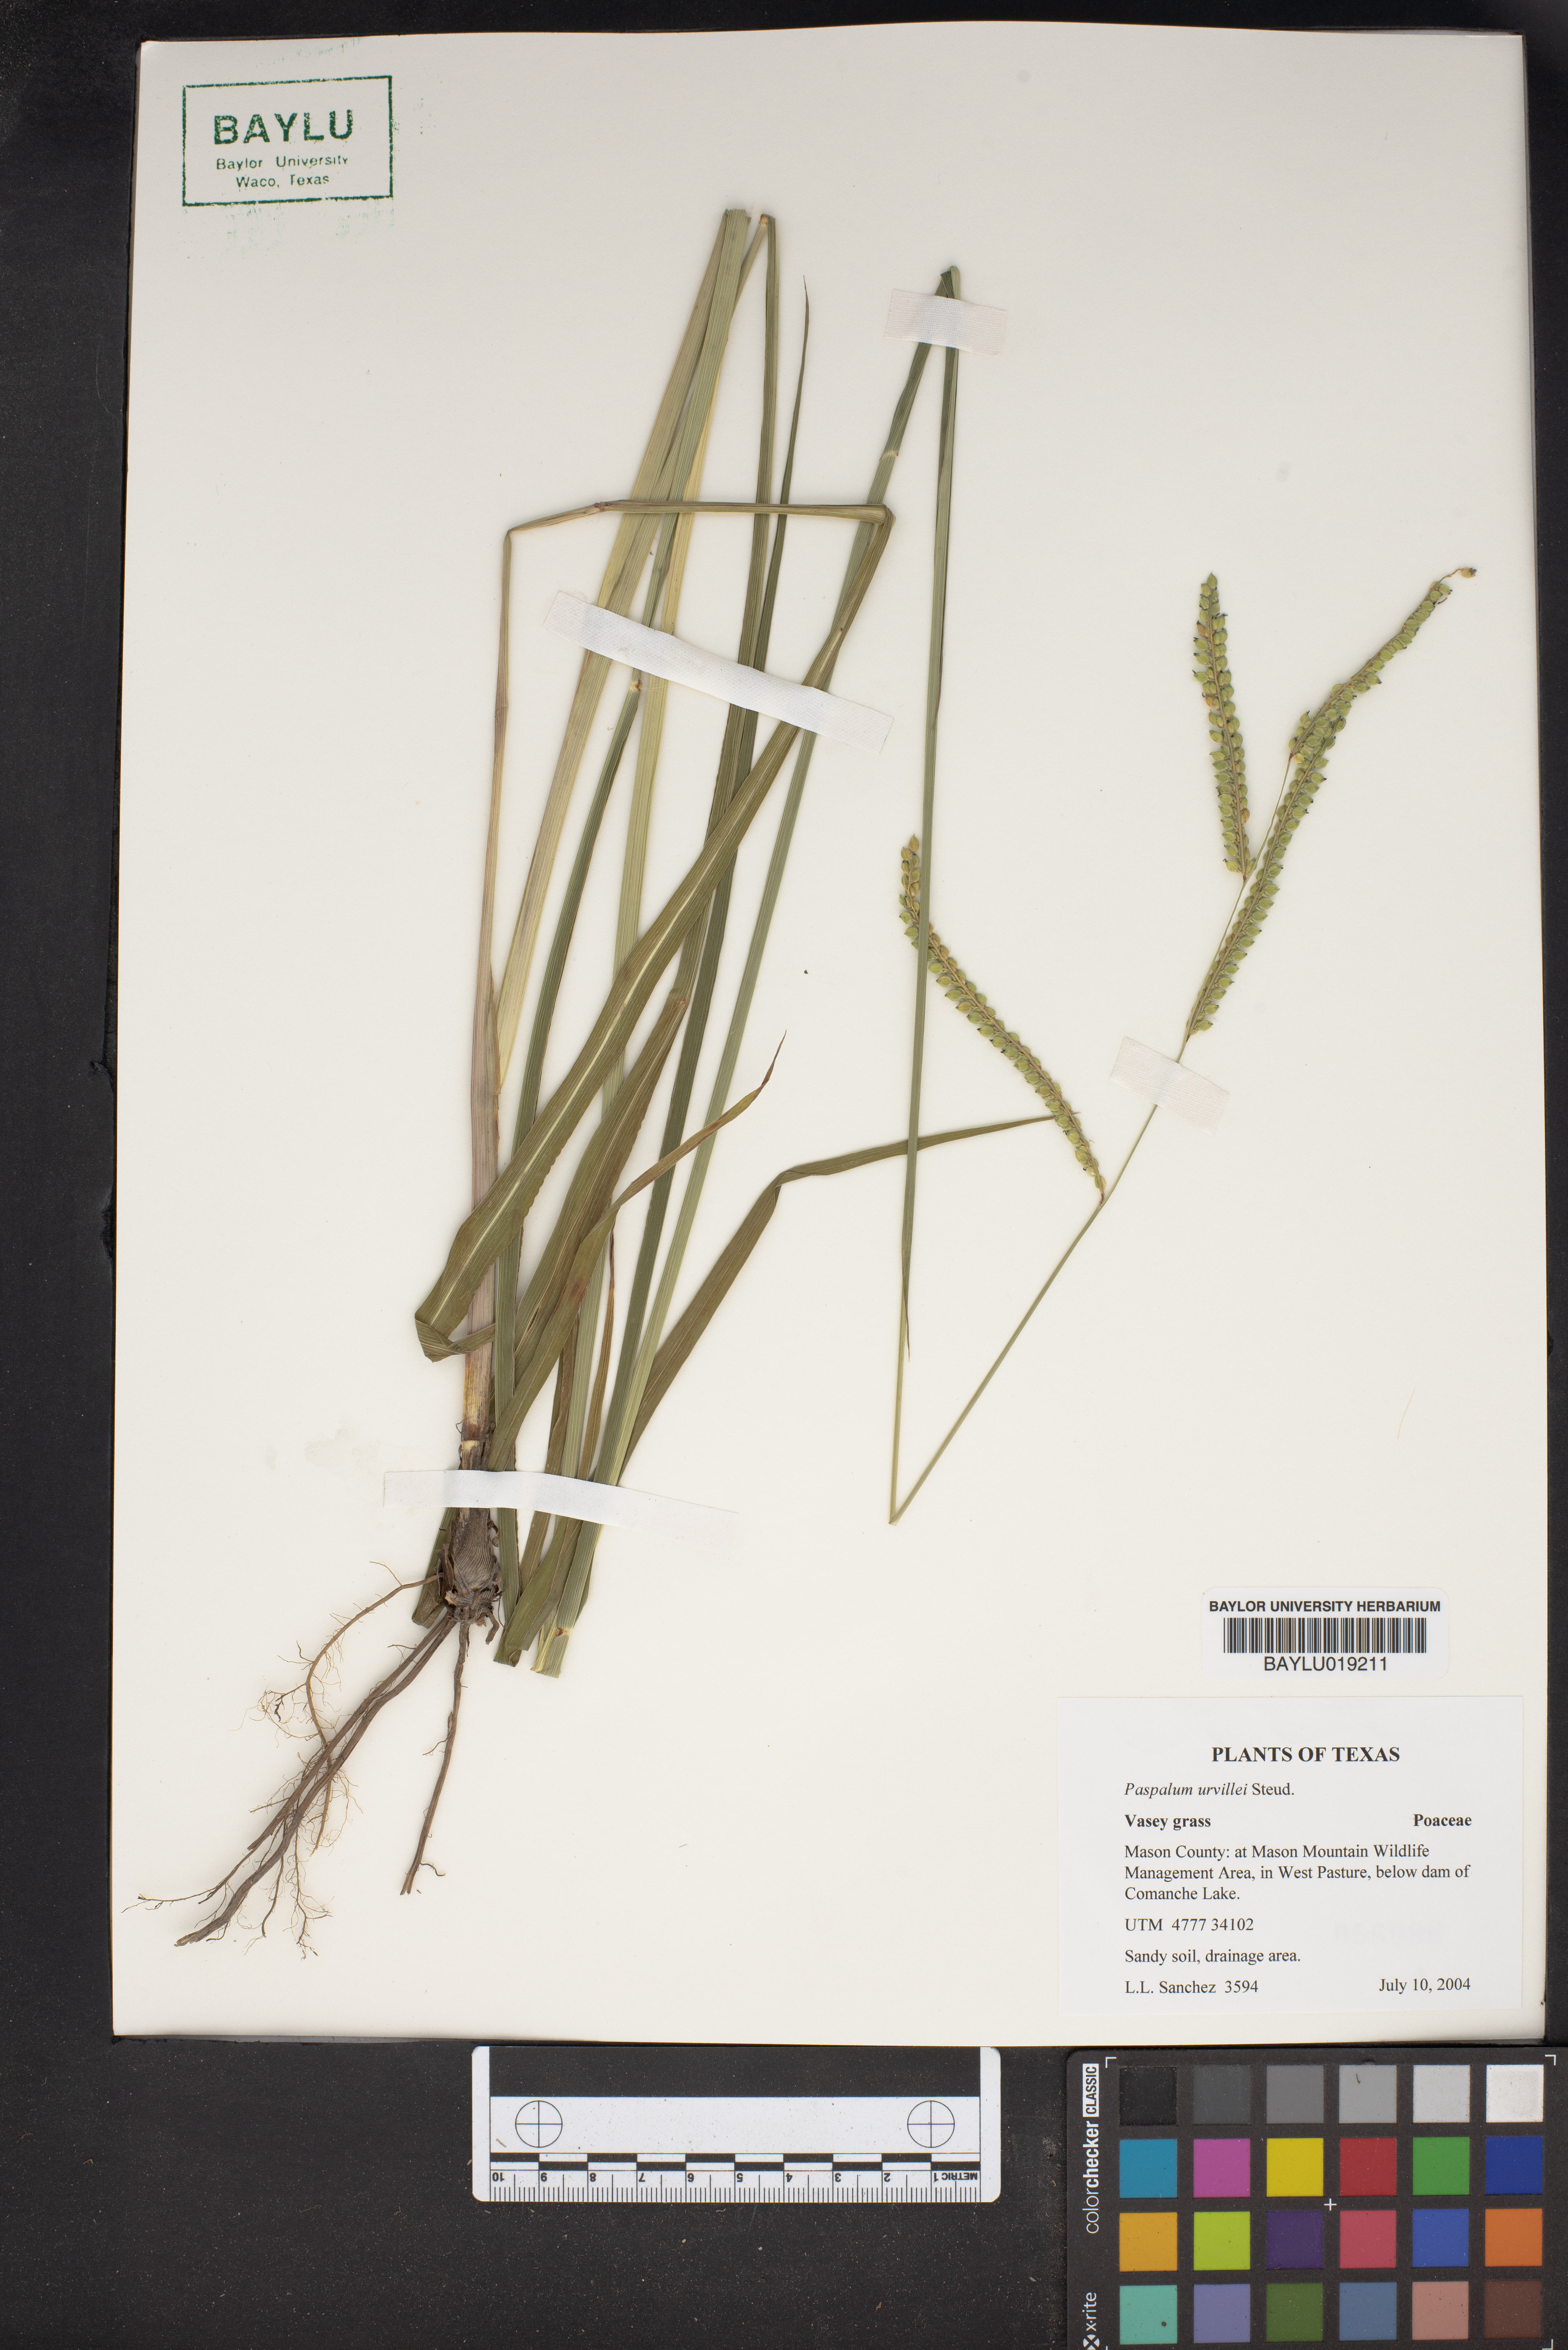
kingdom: Plantae
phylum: Tracheophyta
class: Liliopsida
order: Poales
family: Poaceae
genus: Paspalum
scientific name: Paspalum urvillei
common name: Vasey's grass
